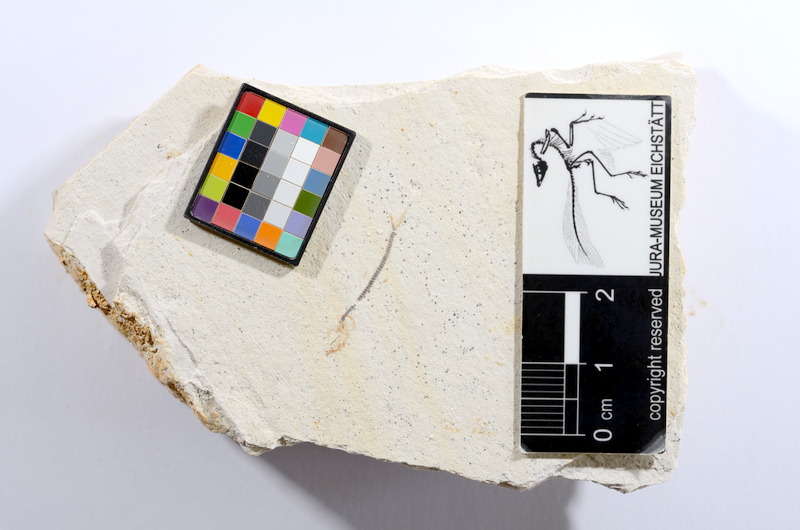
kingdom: Animalia
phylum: Chordata
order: Salmoniformes
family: Orthogonikleithridae
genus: Orthogonikleithrus
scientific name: Orthogonikleithrus hoelli
